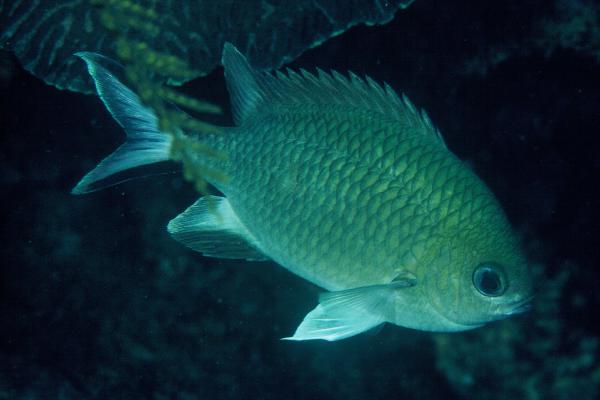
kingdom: Animalia
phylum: Chordata
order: Perciformes
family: Pomacentridae
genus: Chromis
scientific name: Chromis scotochiloptera
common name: Philippines chromis
